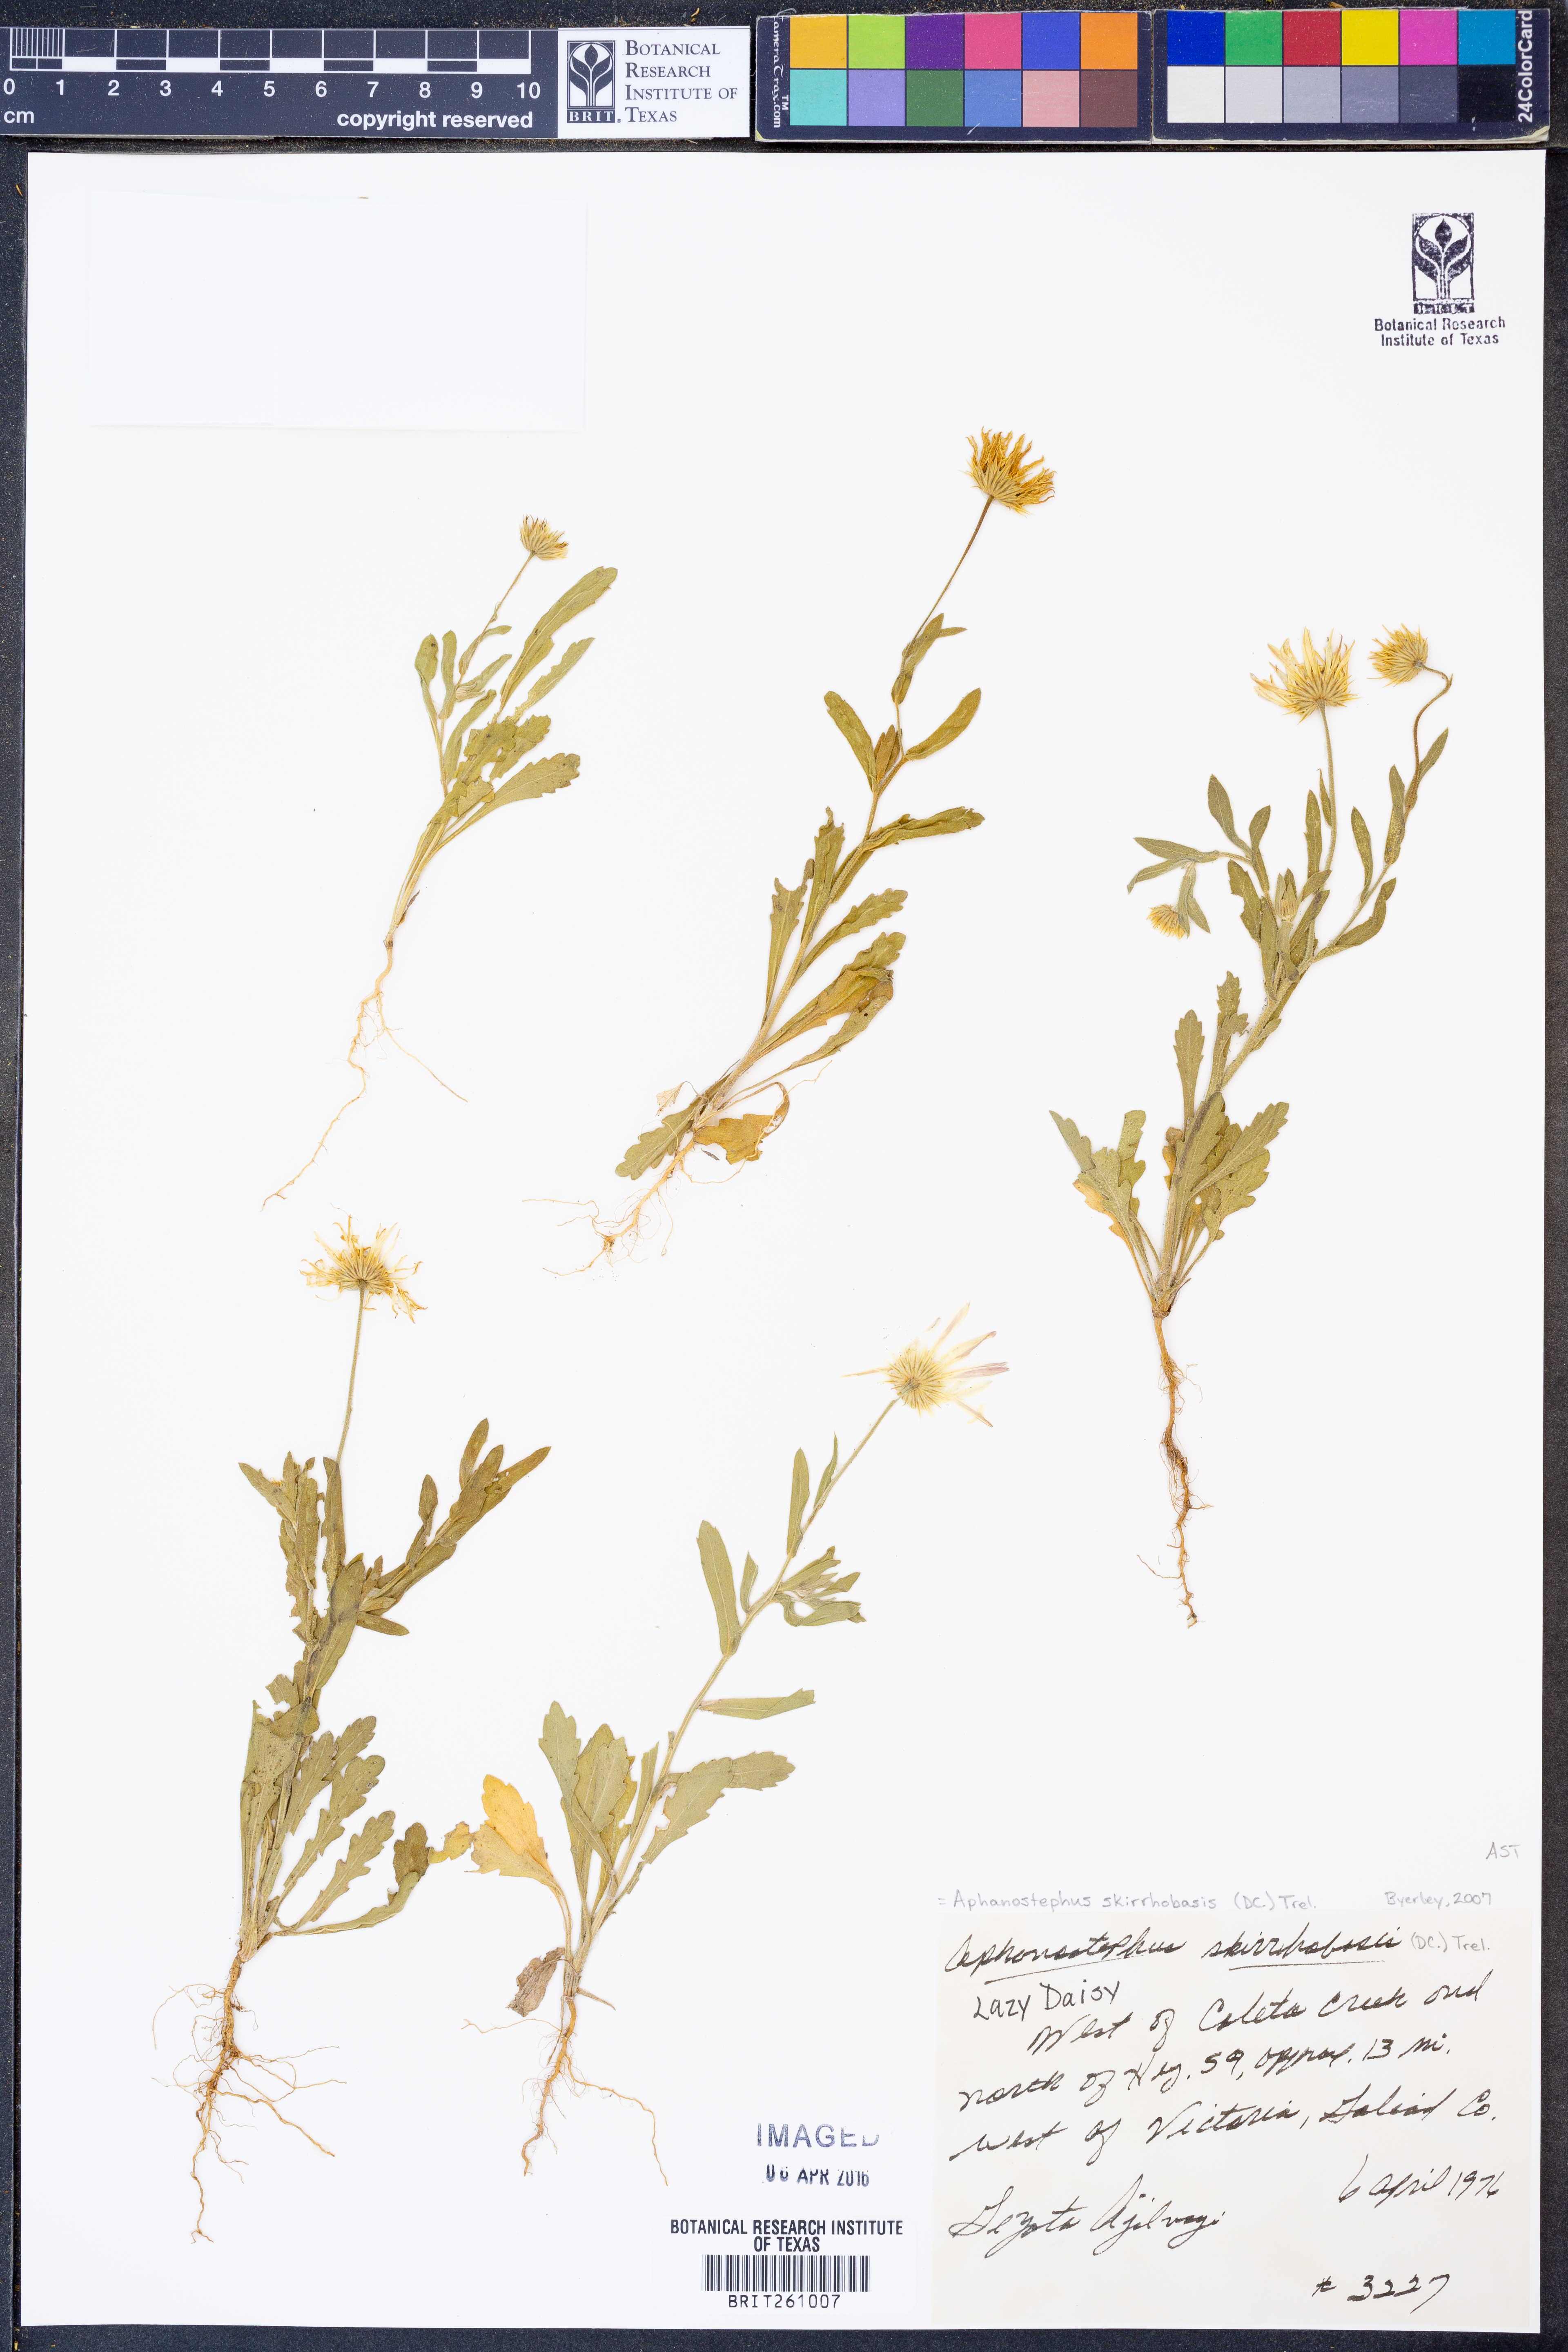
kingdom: Plantae
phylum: Tracheophyta
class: Magnoliopsida
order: Asterales
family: Asteraceae
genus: Aphanostephus
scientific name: Aphanostephus skirrhobasis
